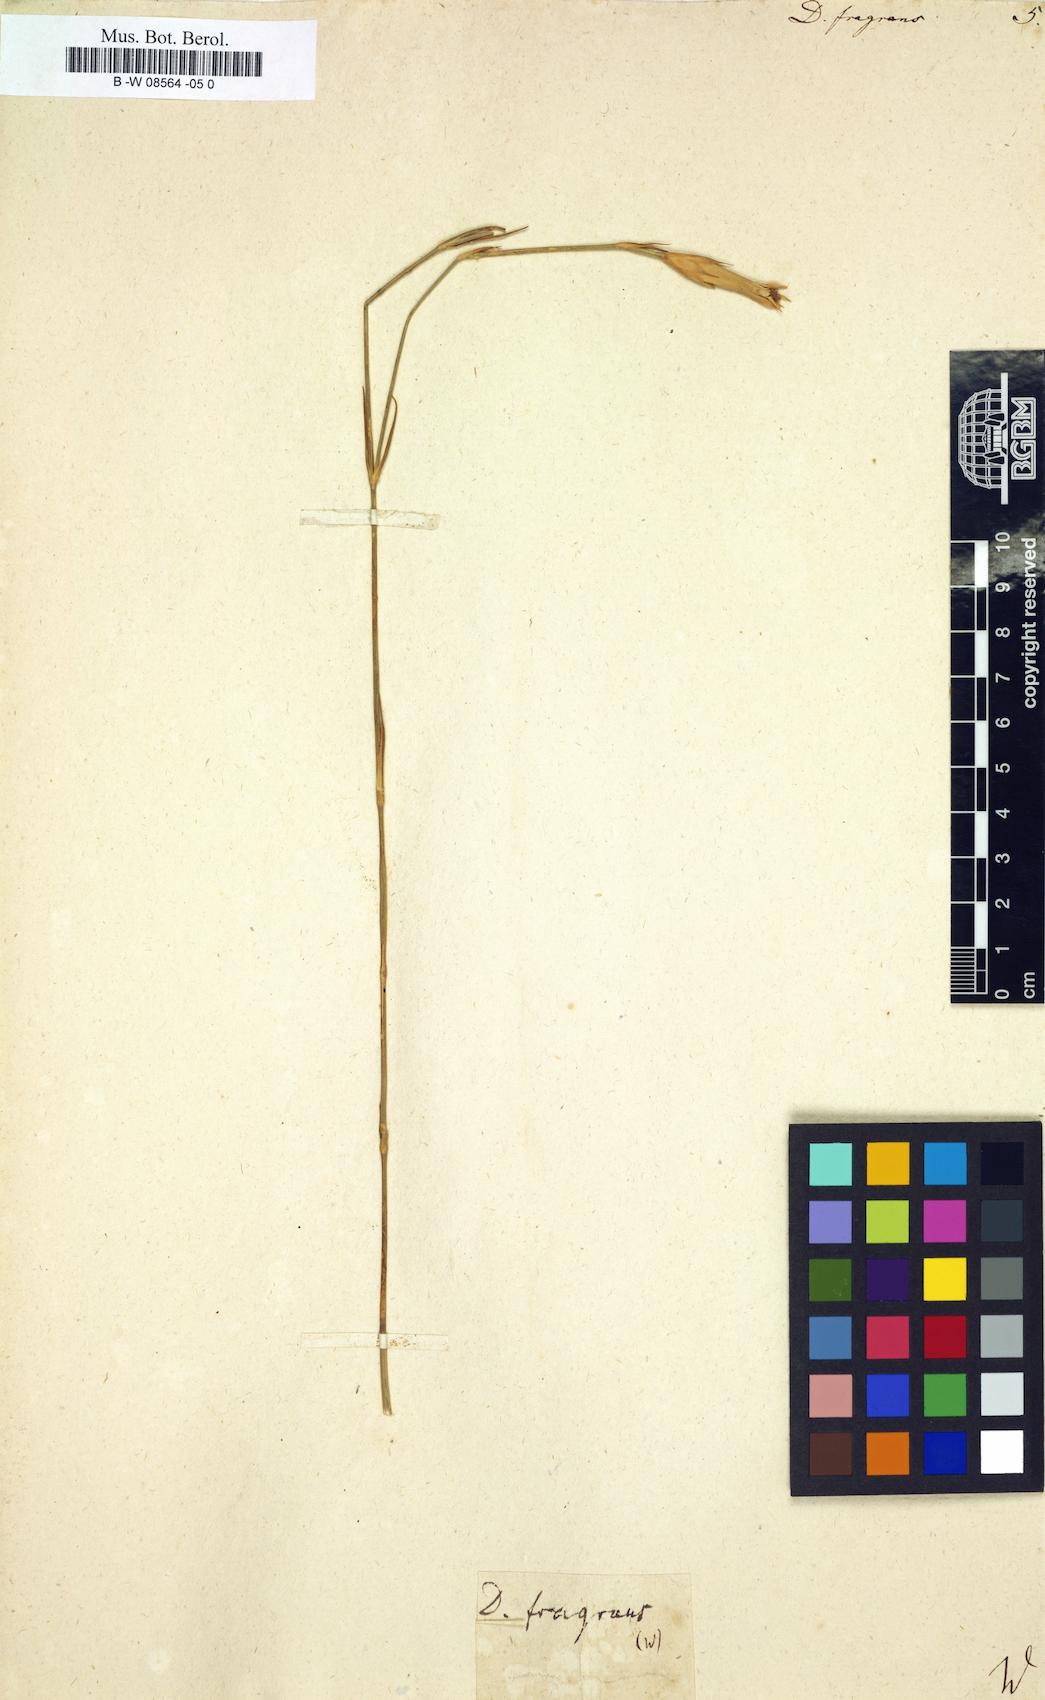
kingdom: Plantae
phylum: Tracheophyta
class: Magnoliopsida
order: Caryophyllales
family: Caryophyllaceae
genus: Dianthus
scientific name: Dianthus fragrans
